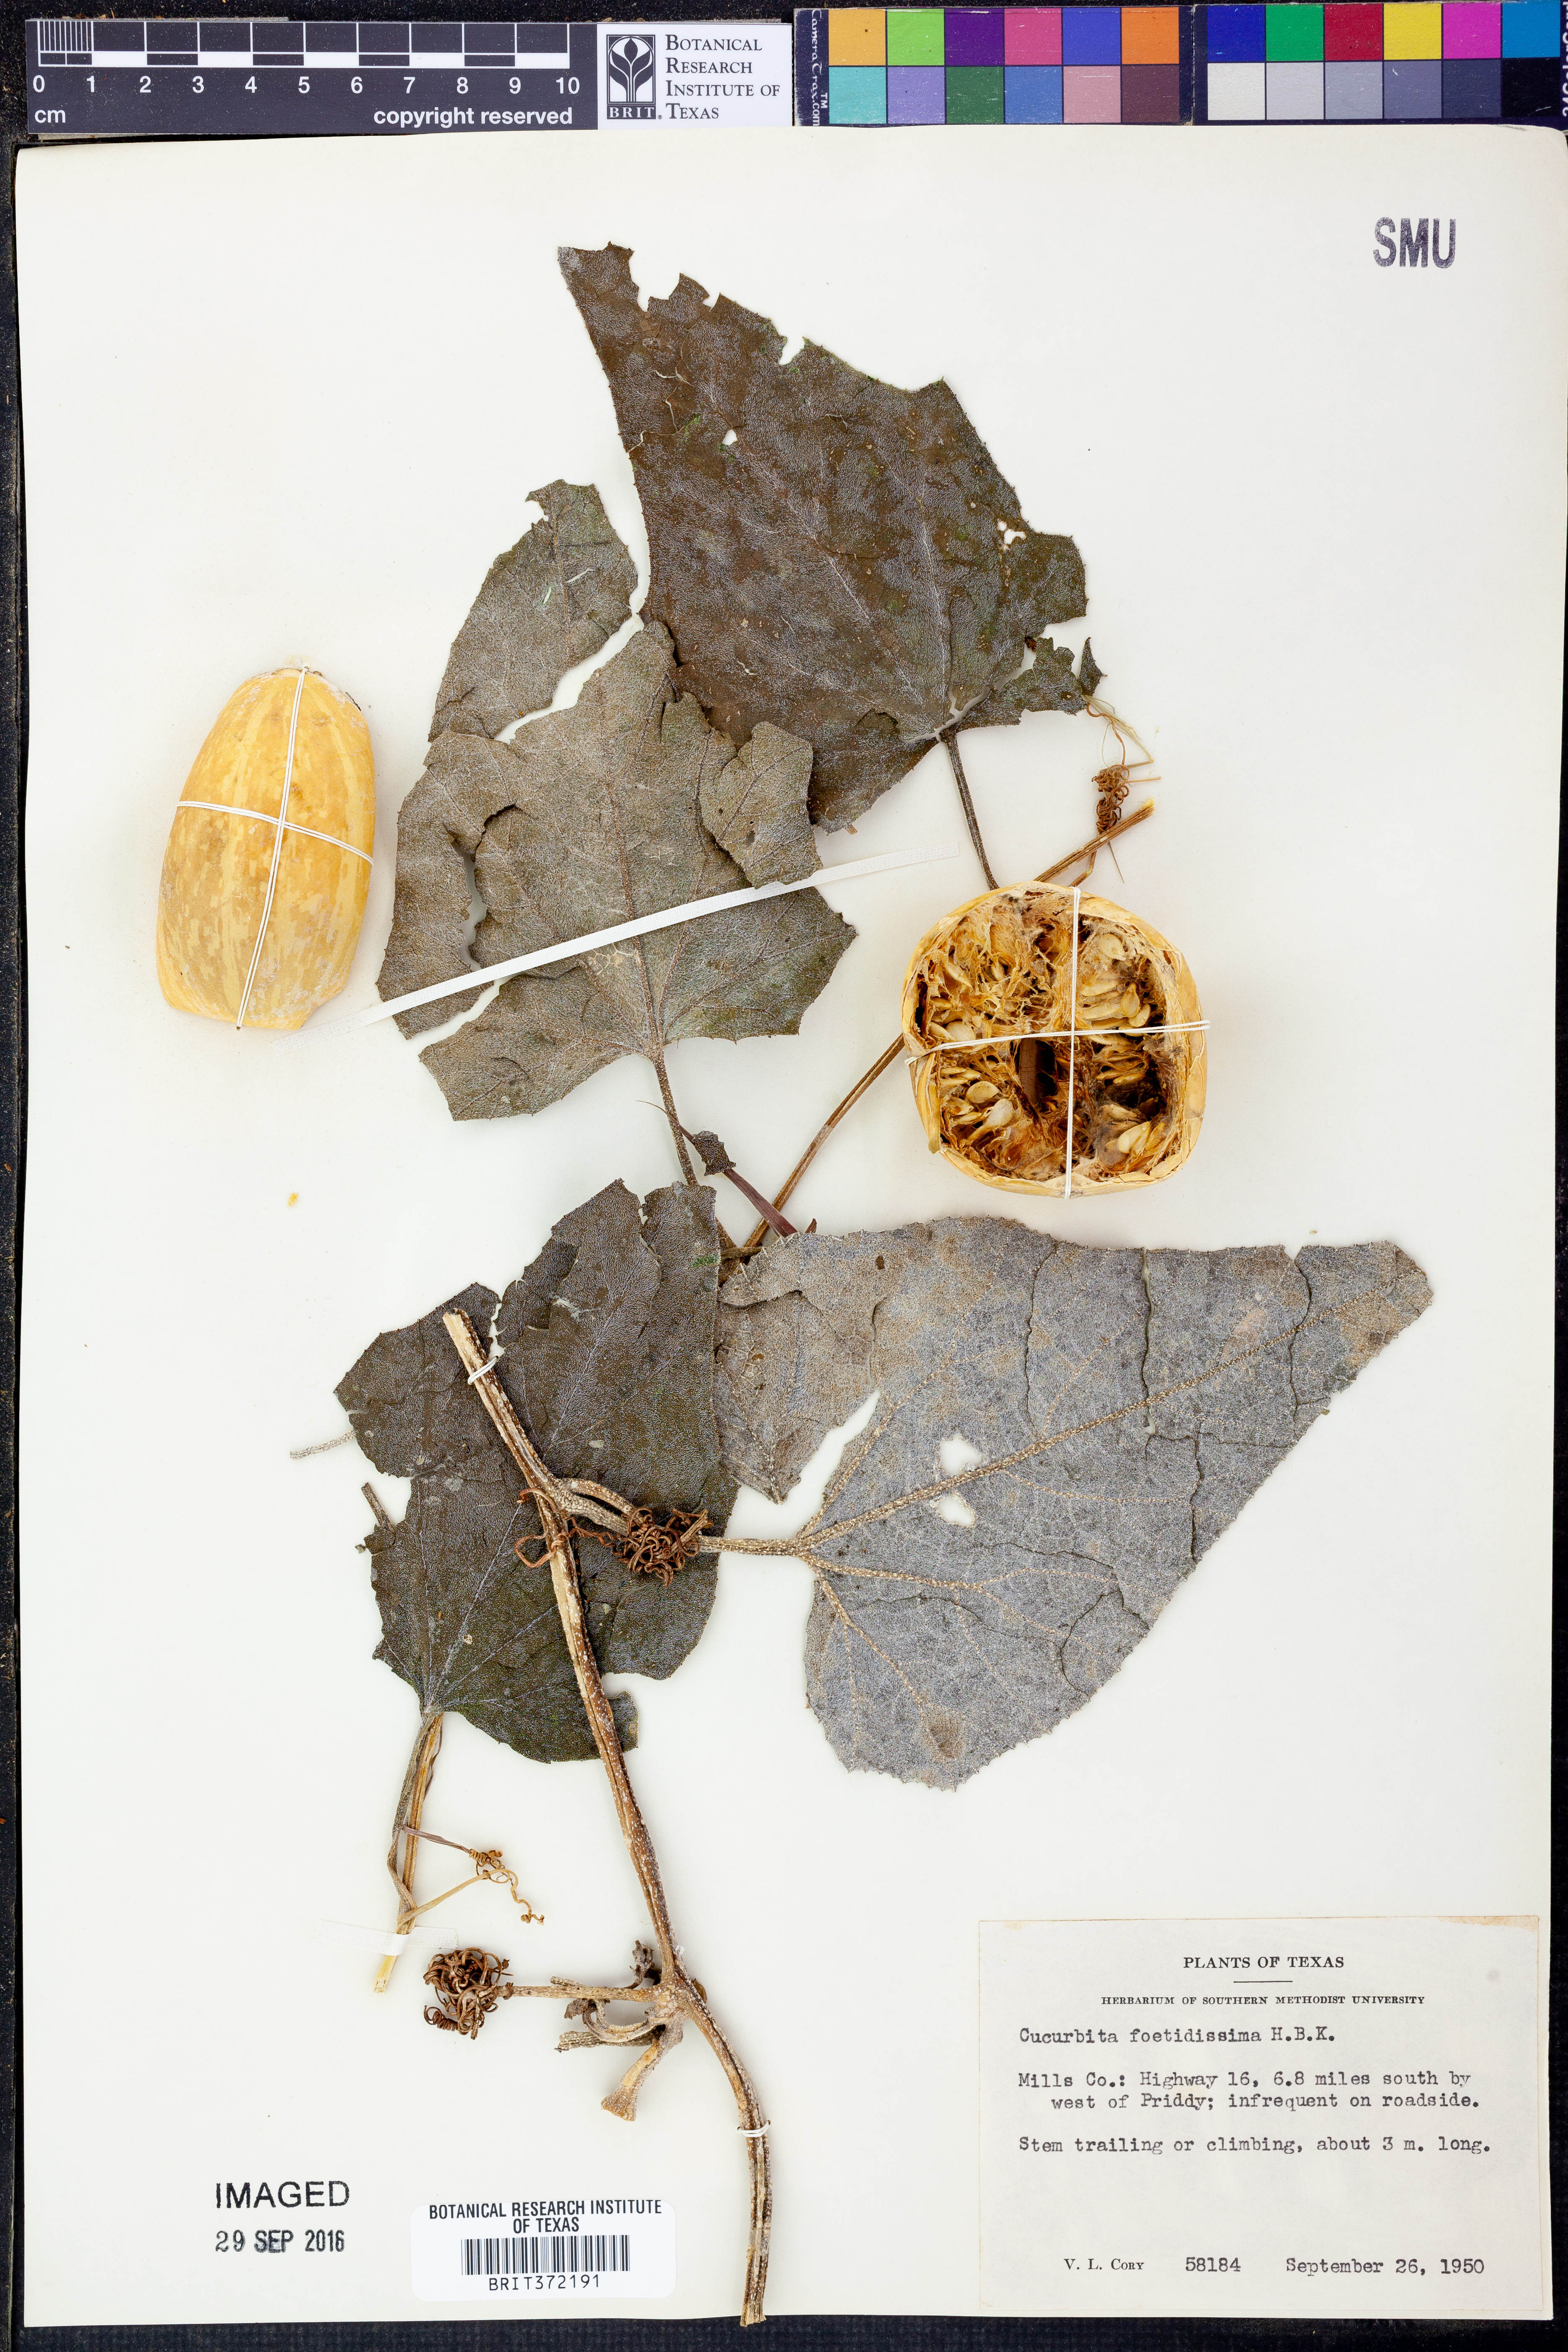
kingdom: Plantae
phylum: Tracheophyta
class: Magnoliopsida
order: Cucurbitales
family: Cucurbitaceae
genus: Cucurbita
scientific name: Cucurbita foetidissima
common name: Buffalo gourd
